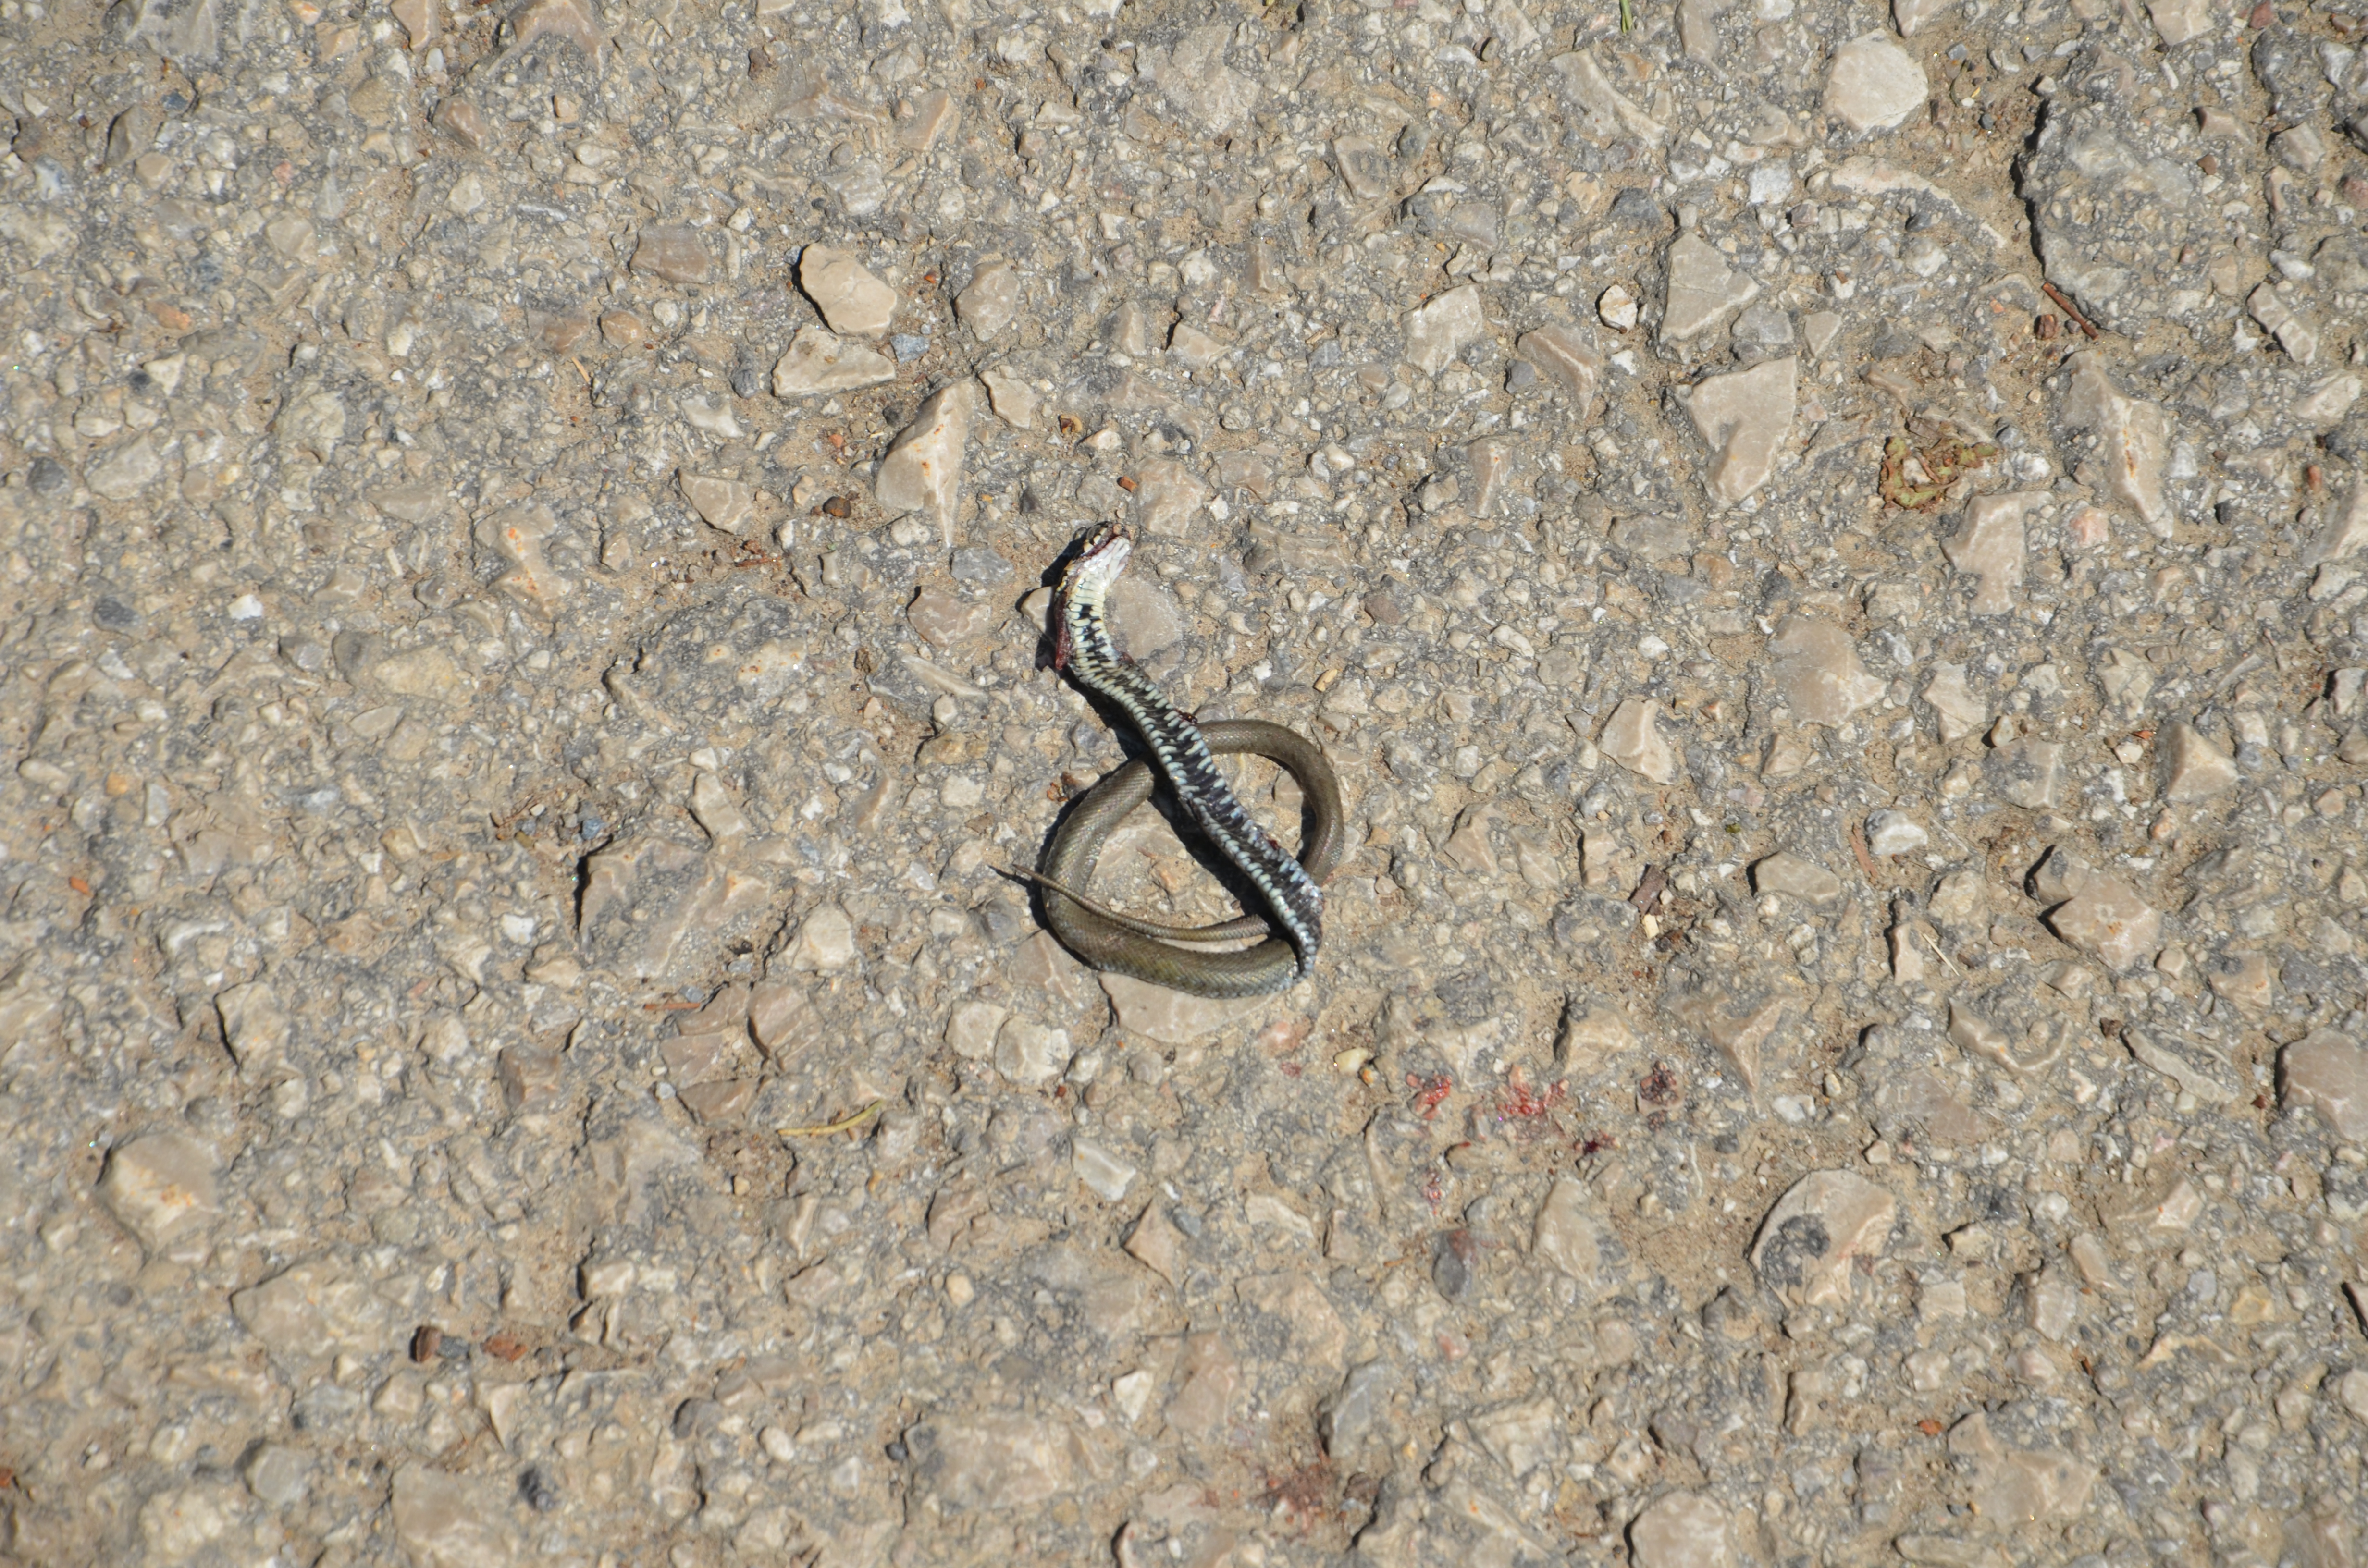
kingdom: Animalia
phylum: Chordata
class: Squamata
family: Colubridae
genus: Natrix
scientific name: Natrix natrix
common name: Grass snake
